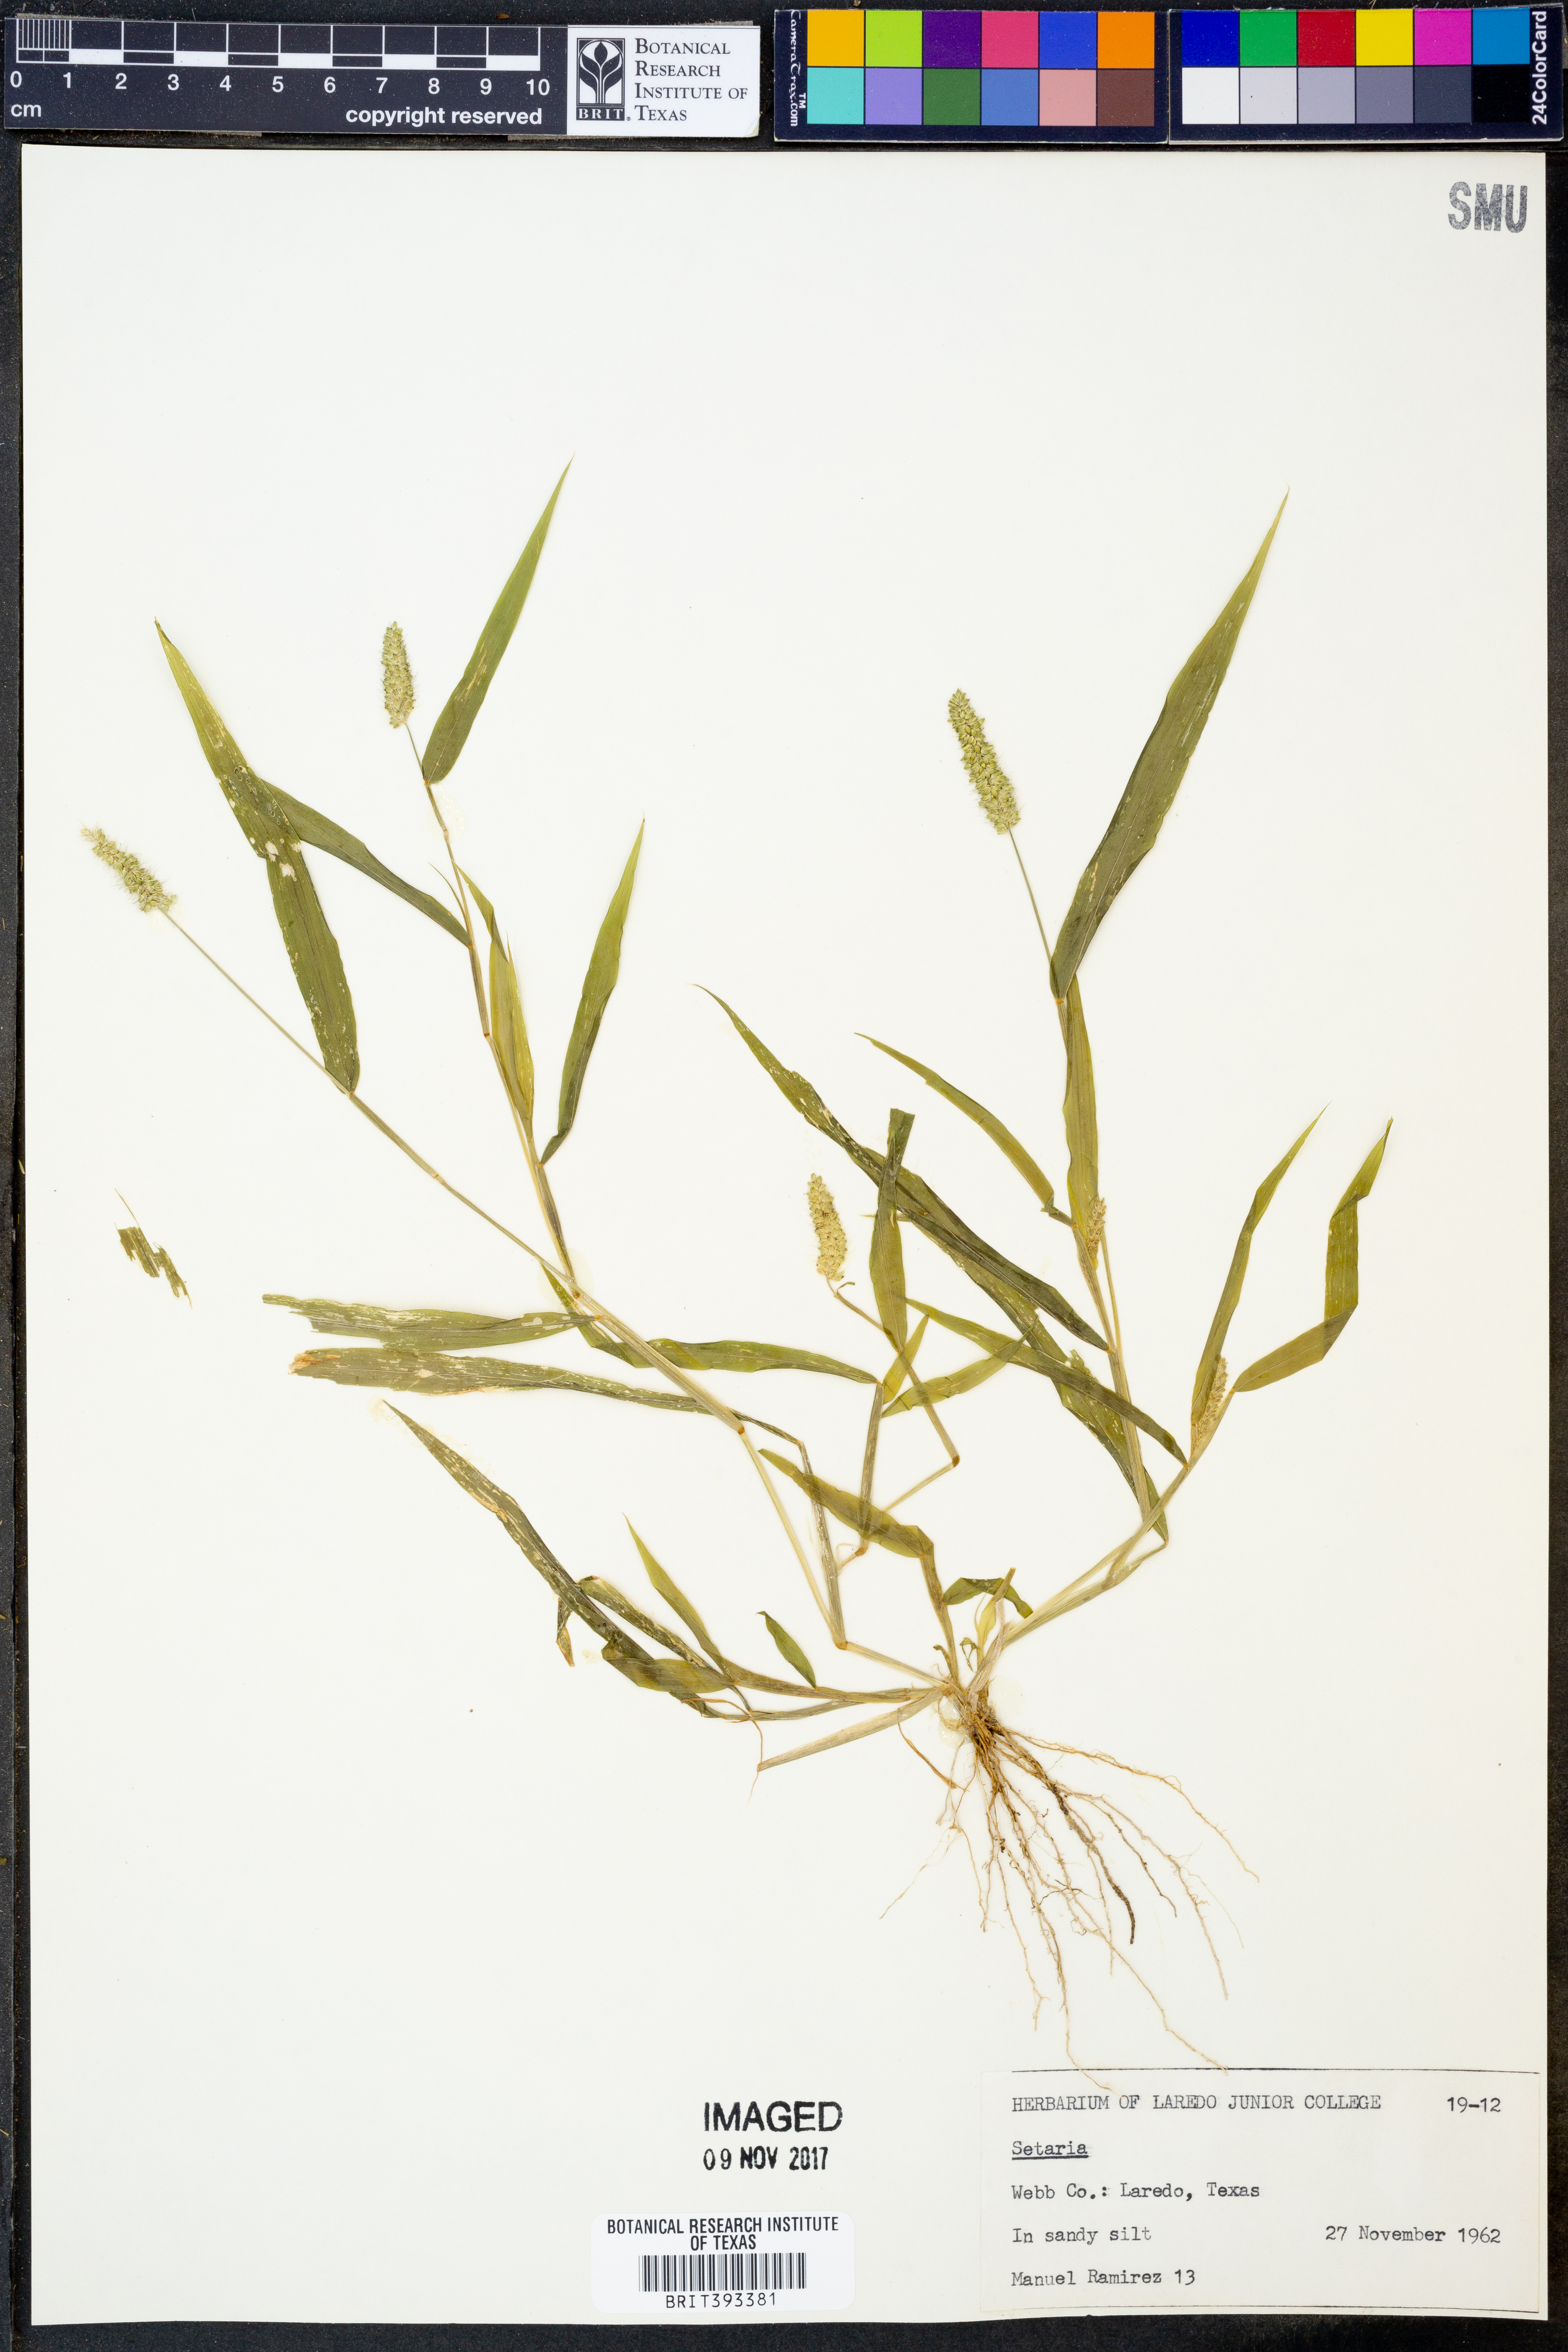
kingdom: Plantae
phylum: Tracheophyta
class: Liliopsida
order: Poales
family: Poaceae
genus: Setaria
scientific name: Setaria
